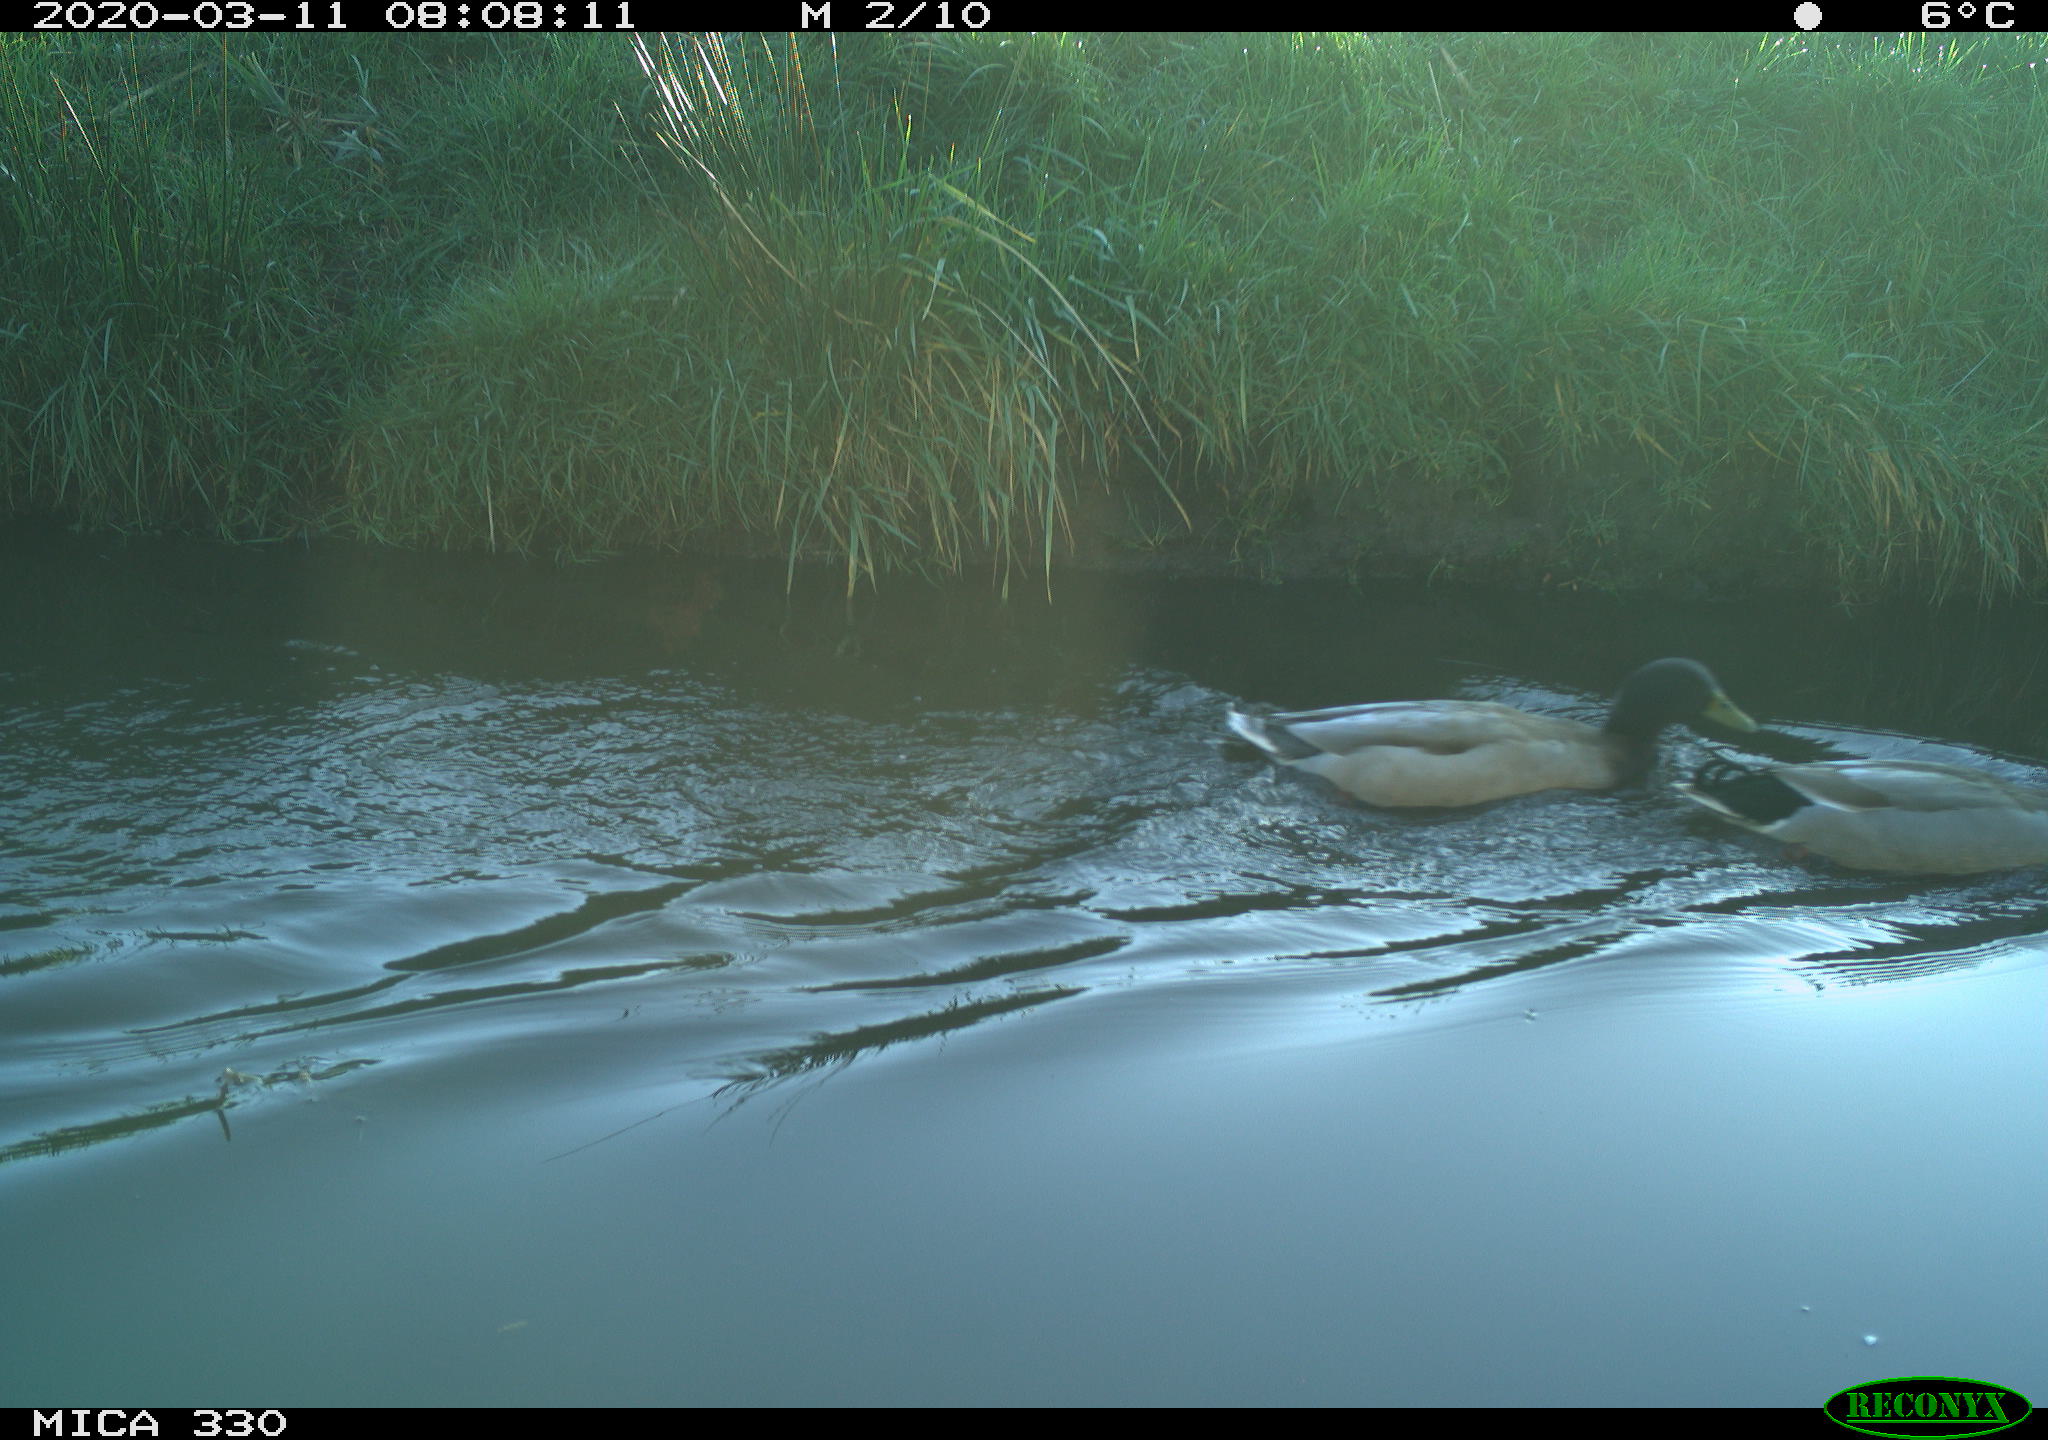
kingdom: Animalia
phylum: Chordata
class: Aves
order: Anseriformes
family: Anatidae
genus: Anas
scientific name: Anas platyrhynchos
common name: Mallard
